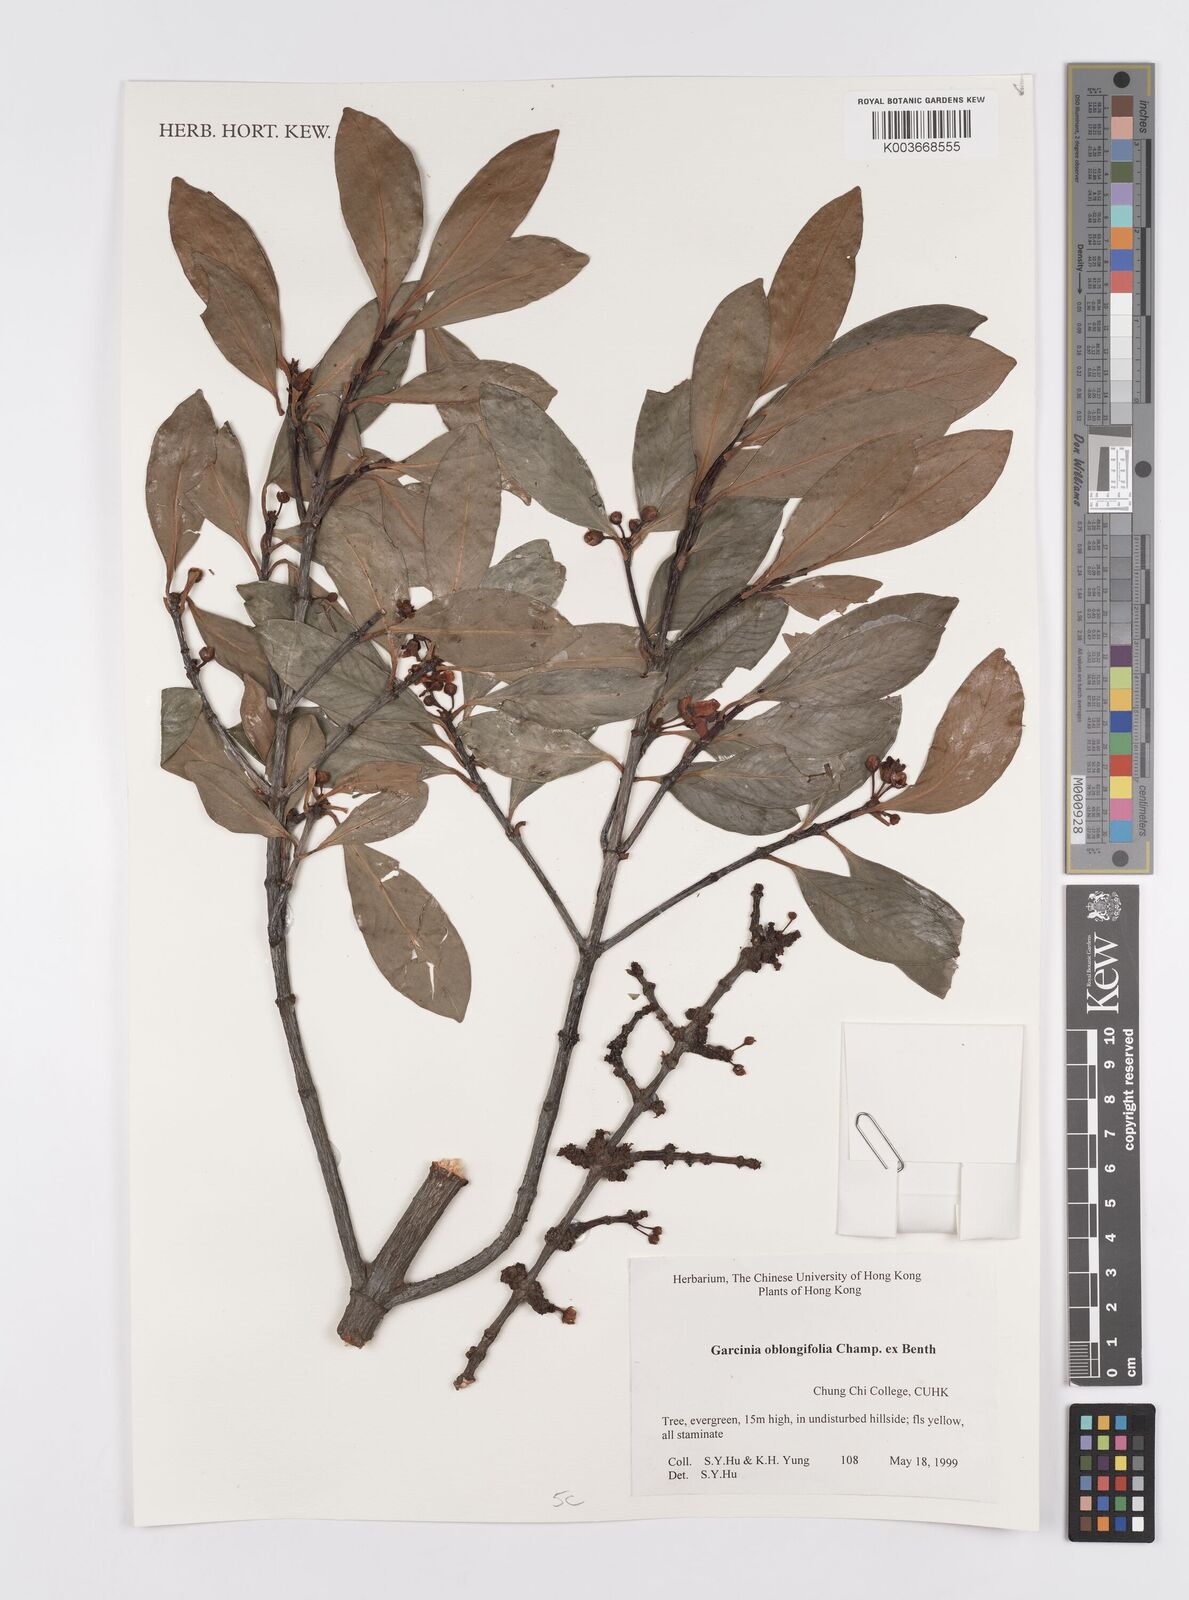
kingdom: Plantae
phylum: Tracheophyta
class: Magnoliopsida
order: Malpighiales
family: Clusiaceae
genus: Garcinia
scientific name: Garcinia oblongifolia
